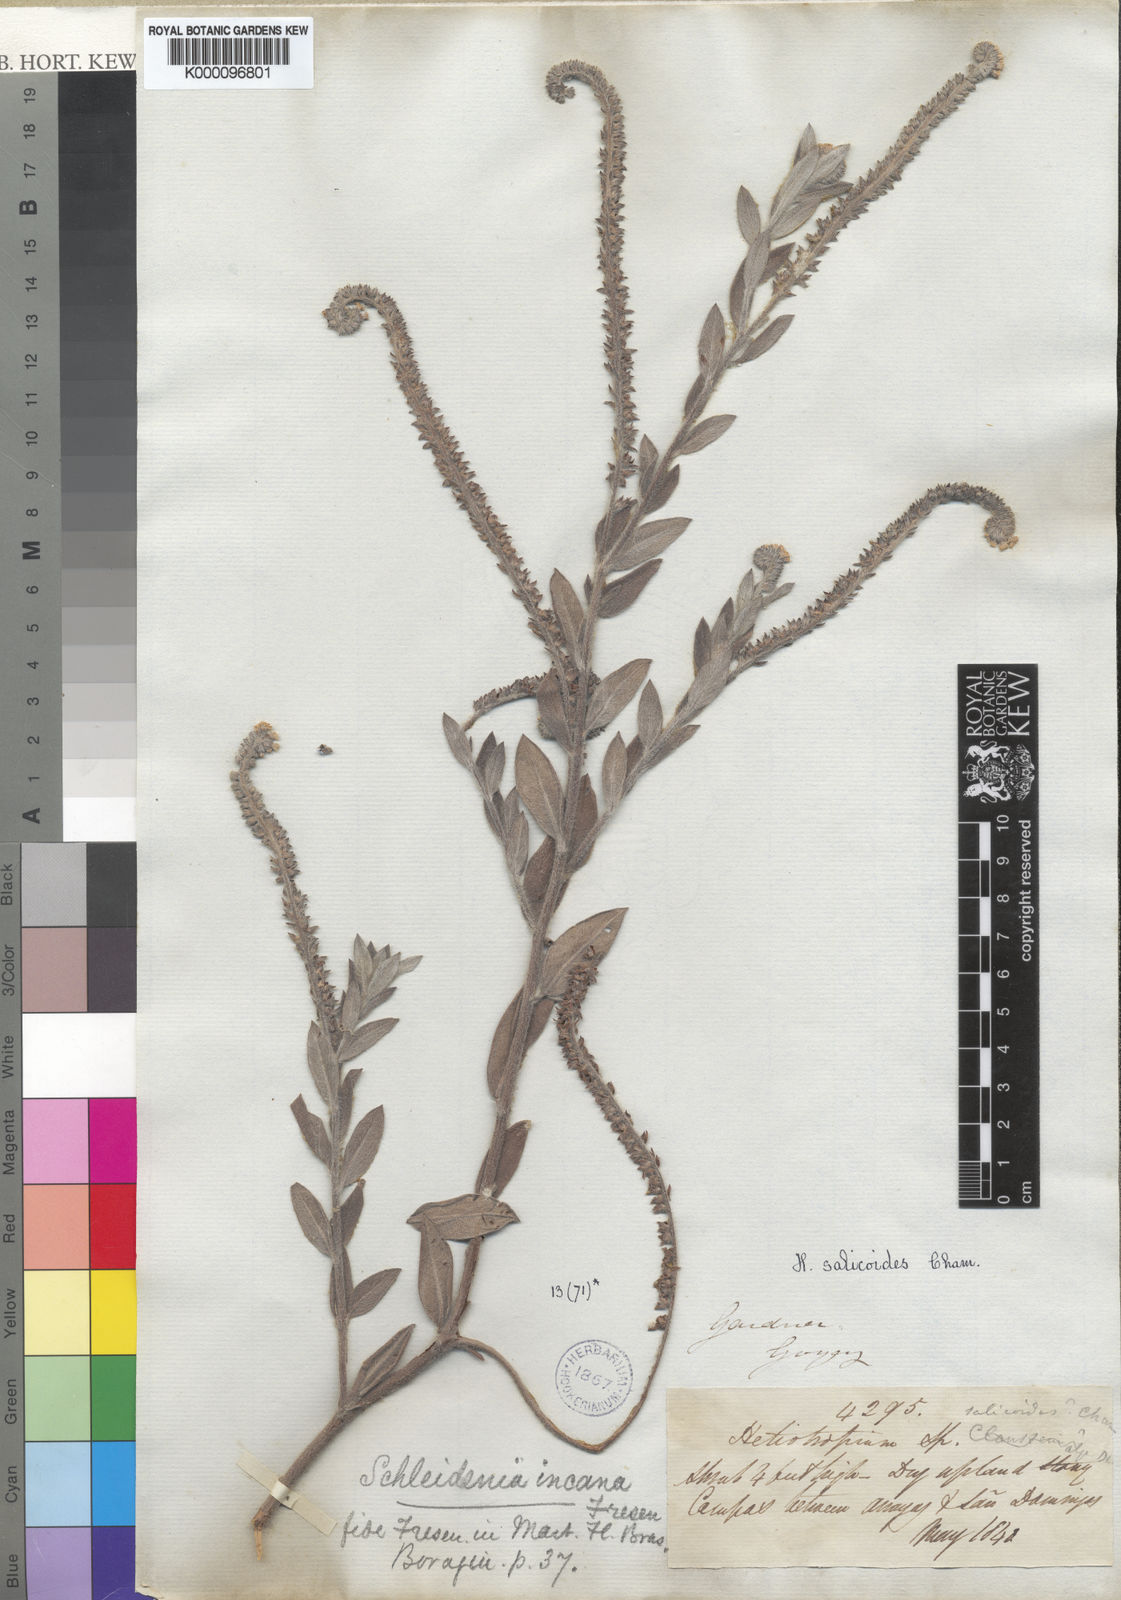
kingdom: Plantae
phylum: Tracheophyta
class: Magnoliopsida
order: Boraginales
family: Heliotropiaceae
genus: Heliotropium
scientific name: Heliotropium
